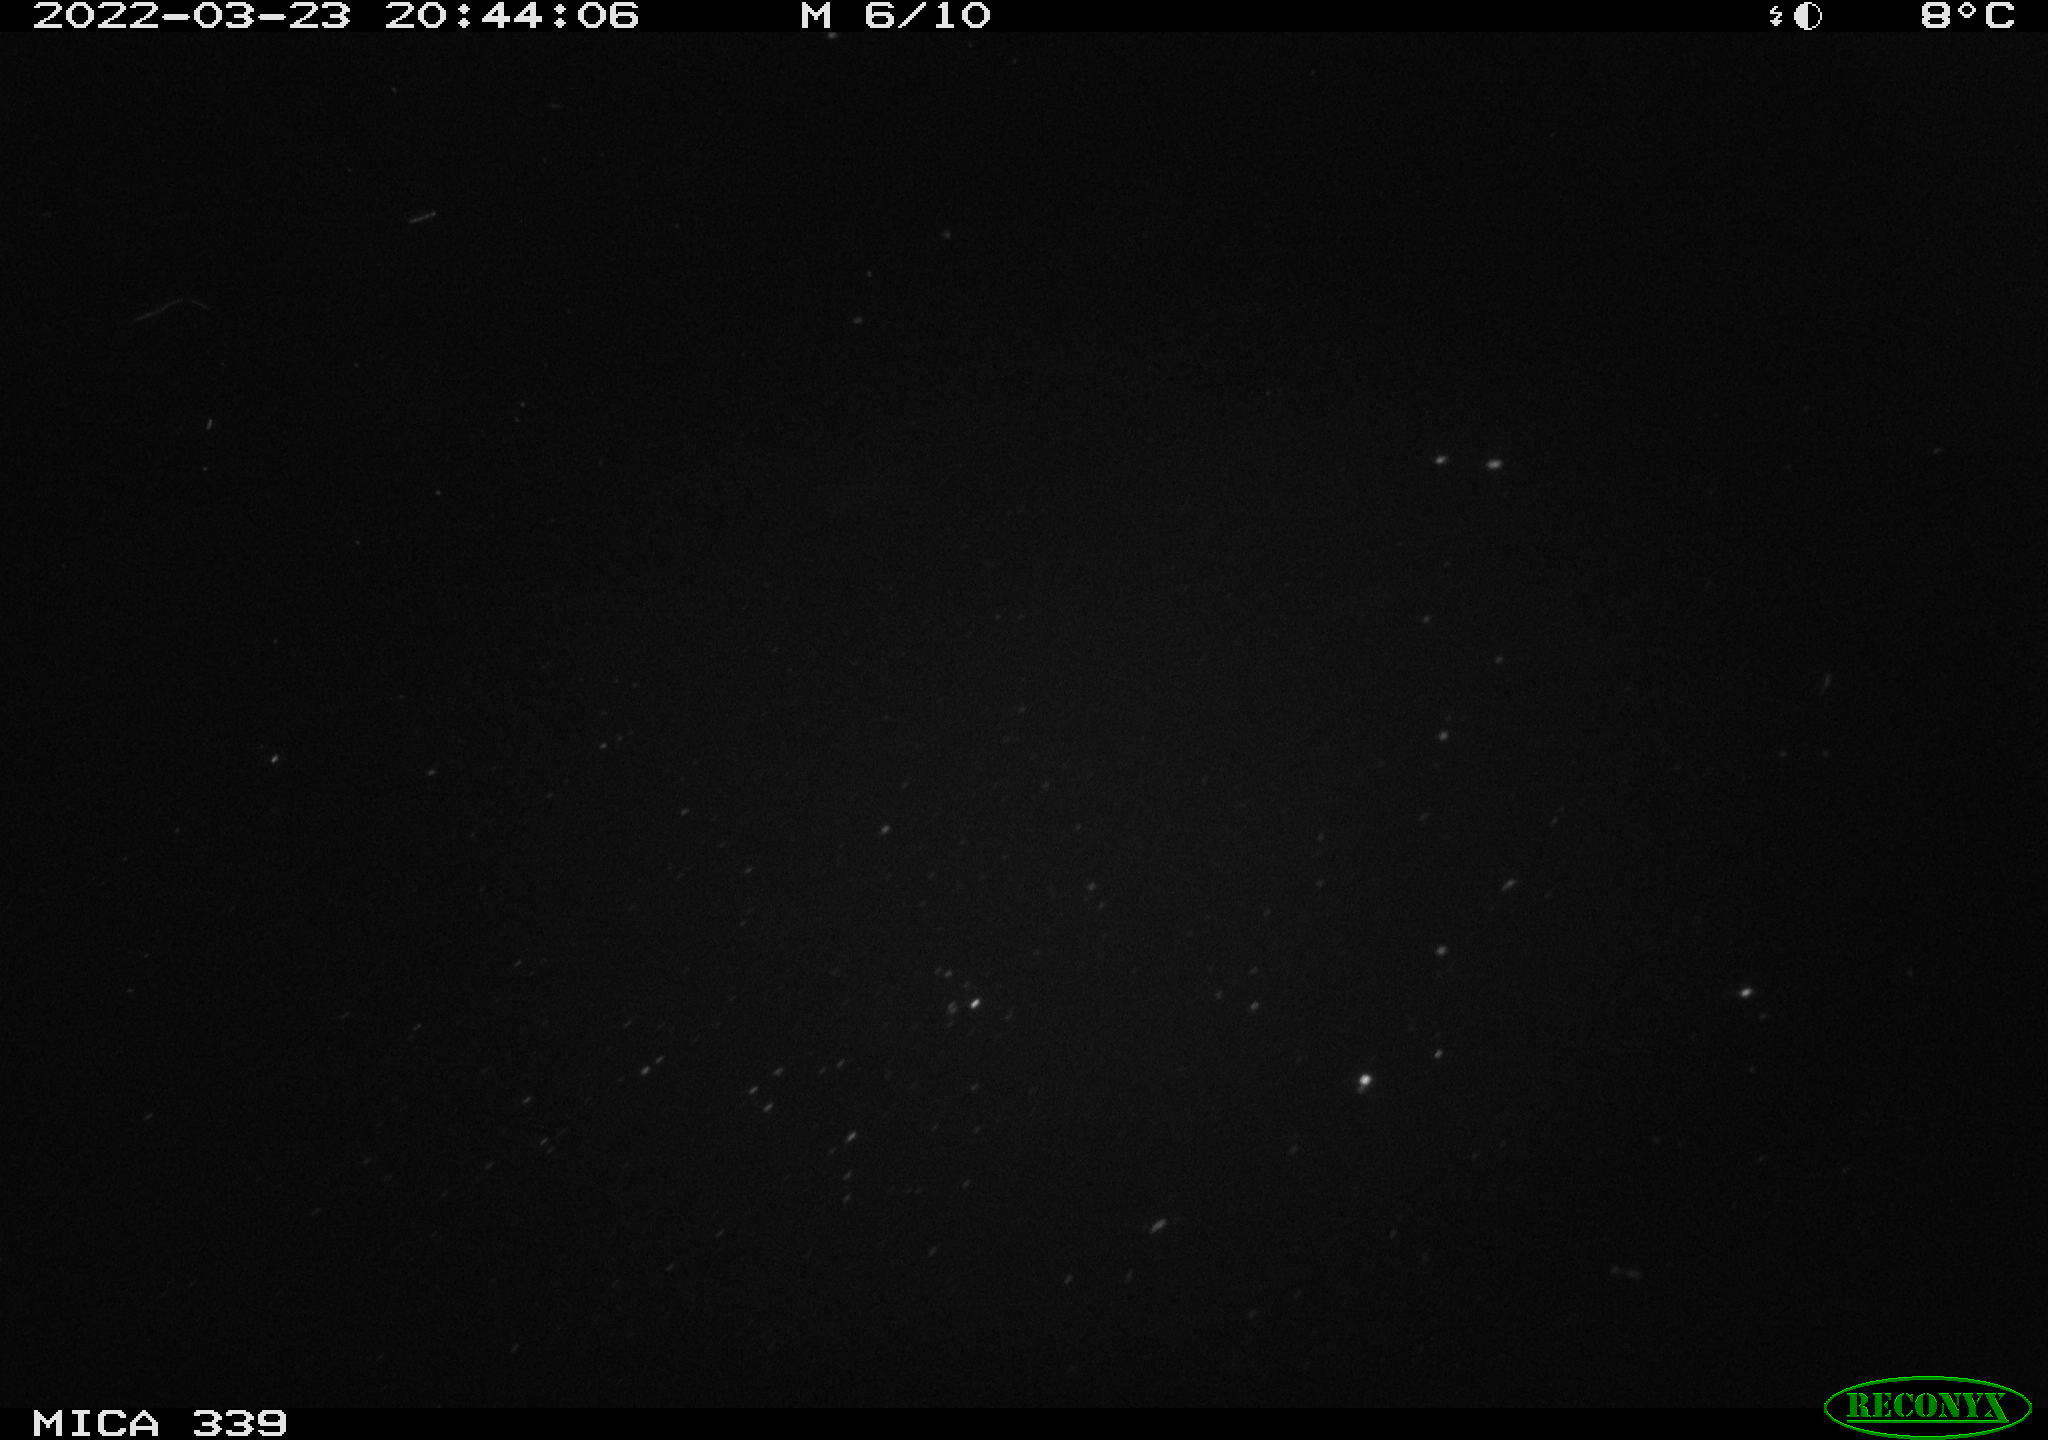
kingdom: Animalia
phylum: Chordata
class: Mammalia
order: Rodentia
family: Muridae
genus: Rattus
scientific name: Rattus norvegicus
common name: Brown rat
